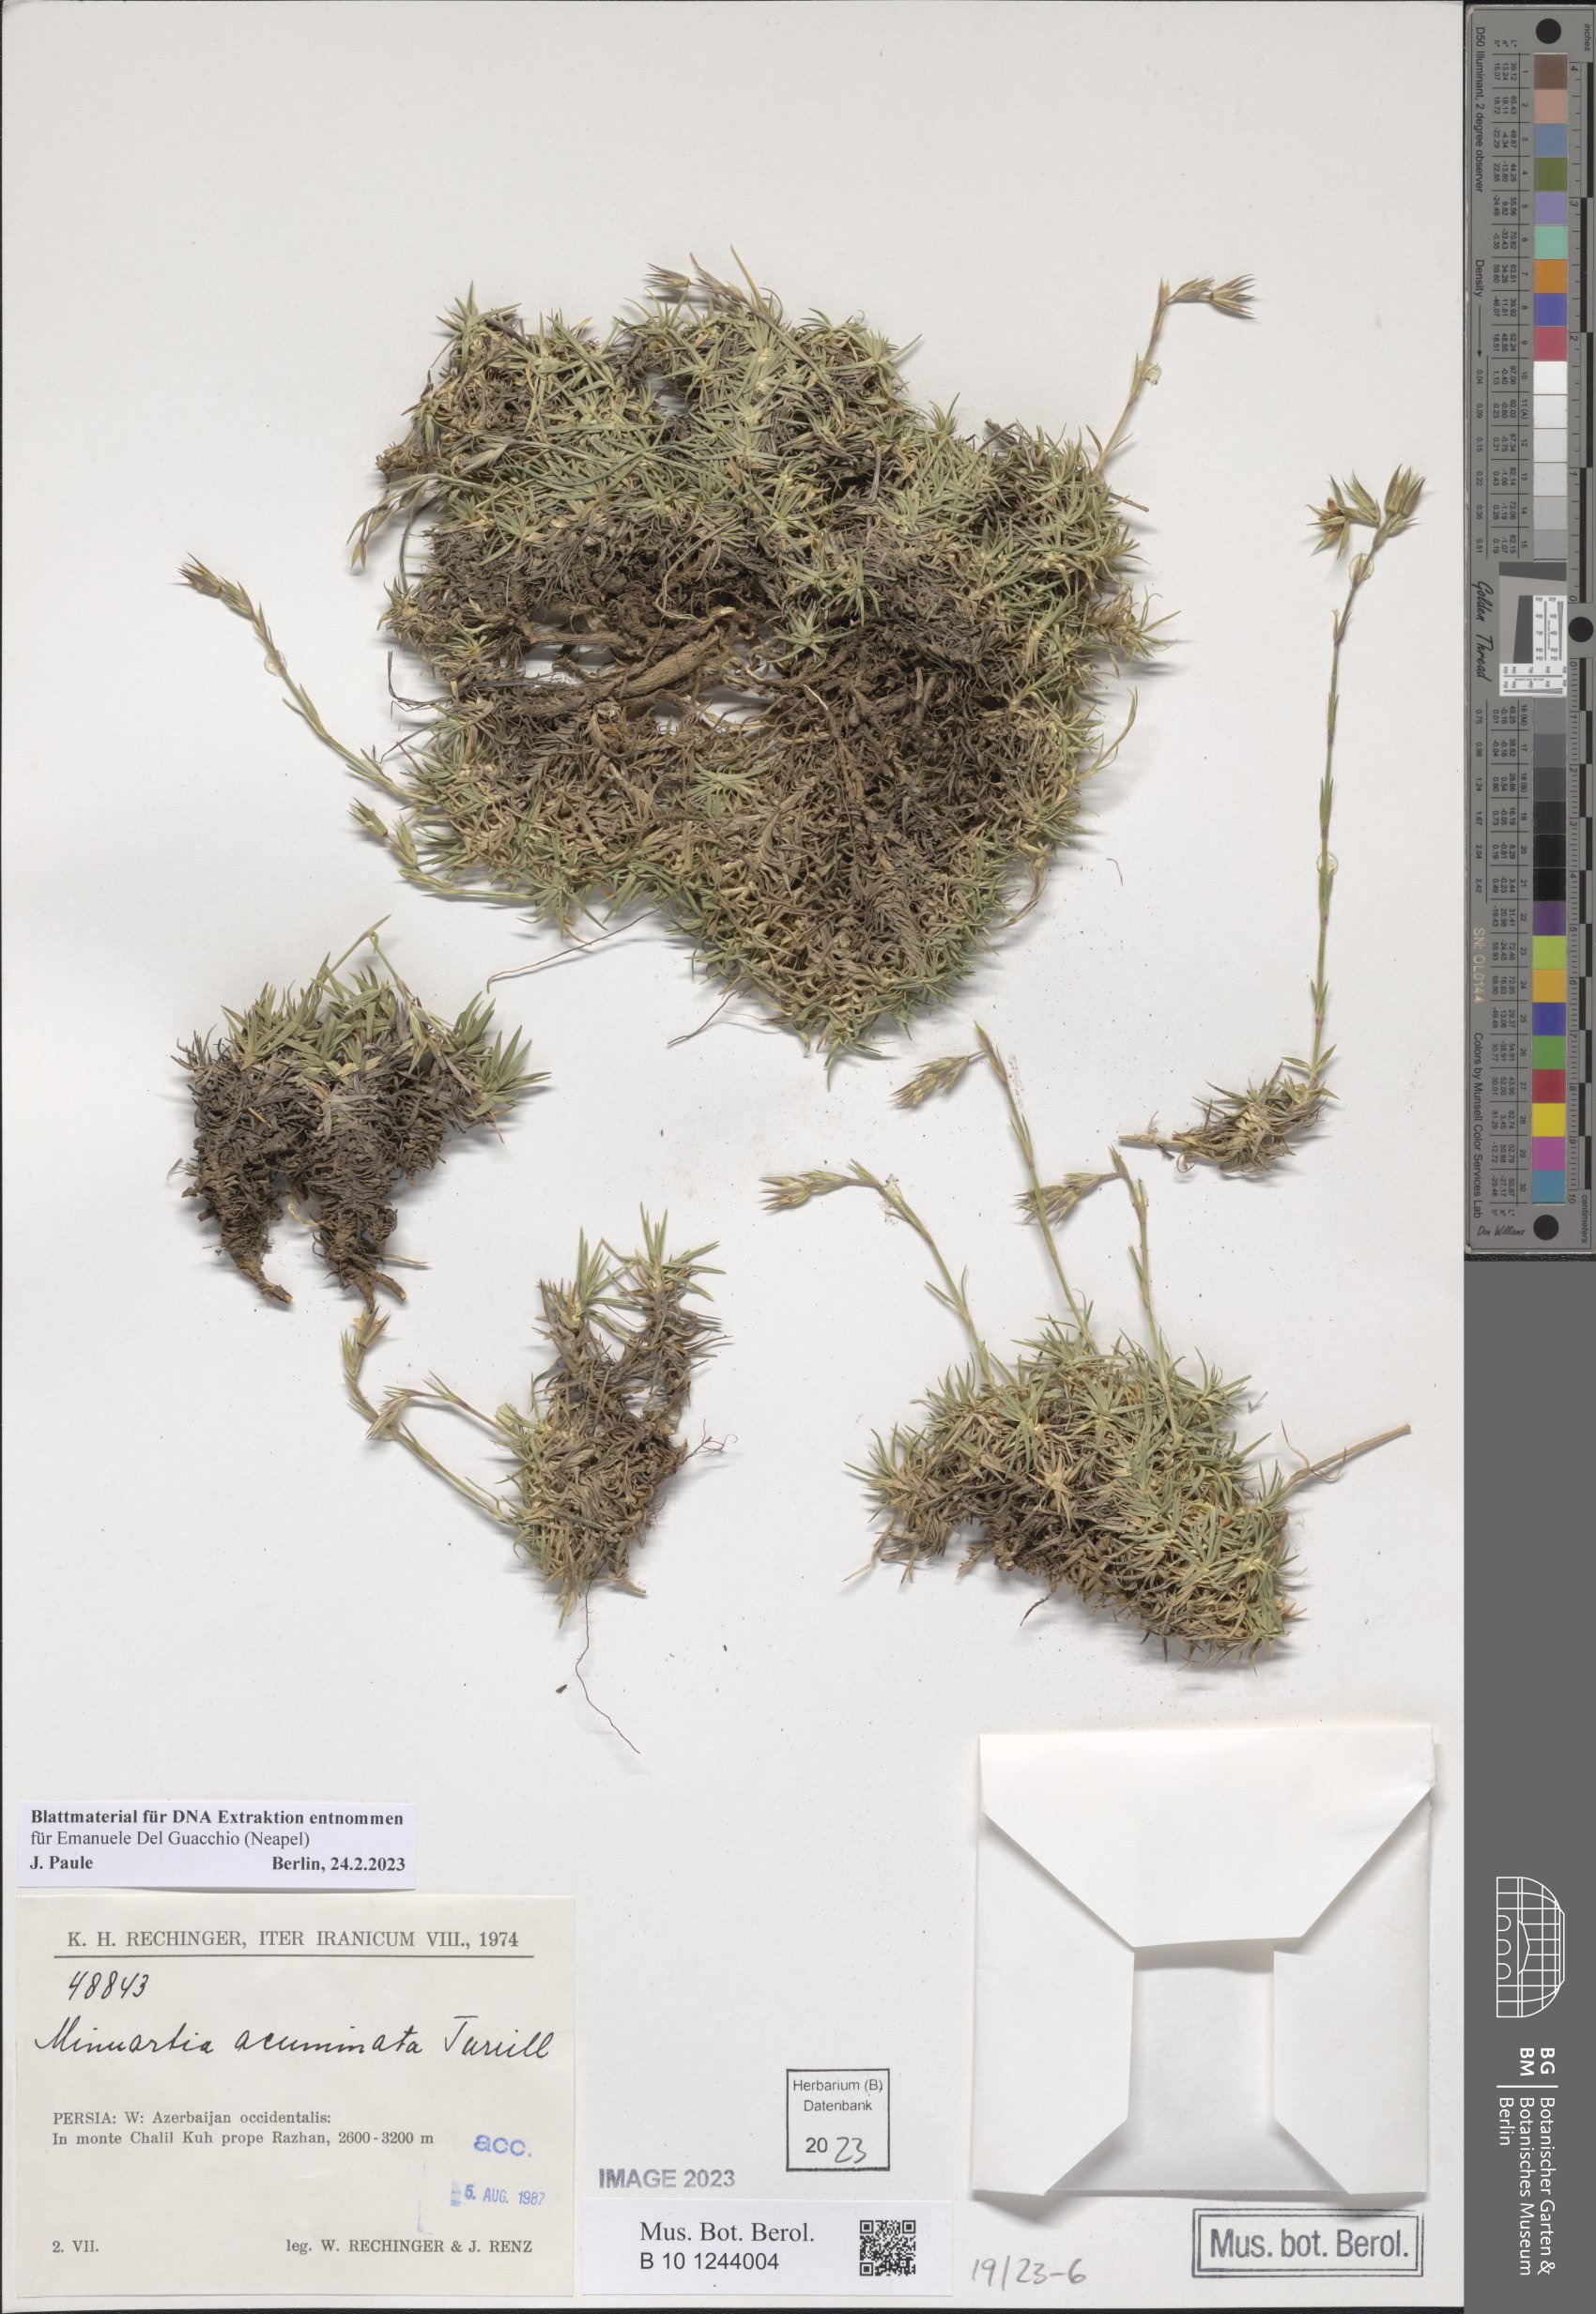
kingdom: Plantae
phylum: Tracheophyta
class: Magnoliopsida
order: Caryophyllales
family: Caryophyllaceae
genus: Minuartiella
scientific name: Minuartiella acuminata
